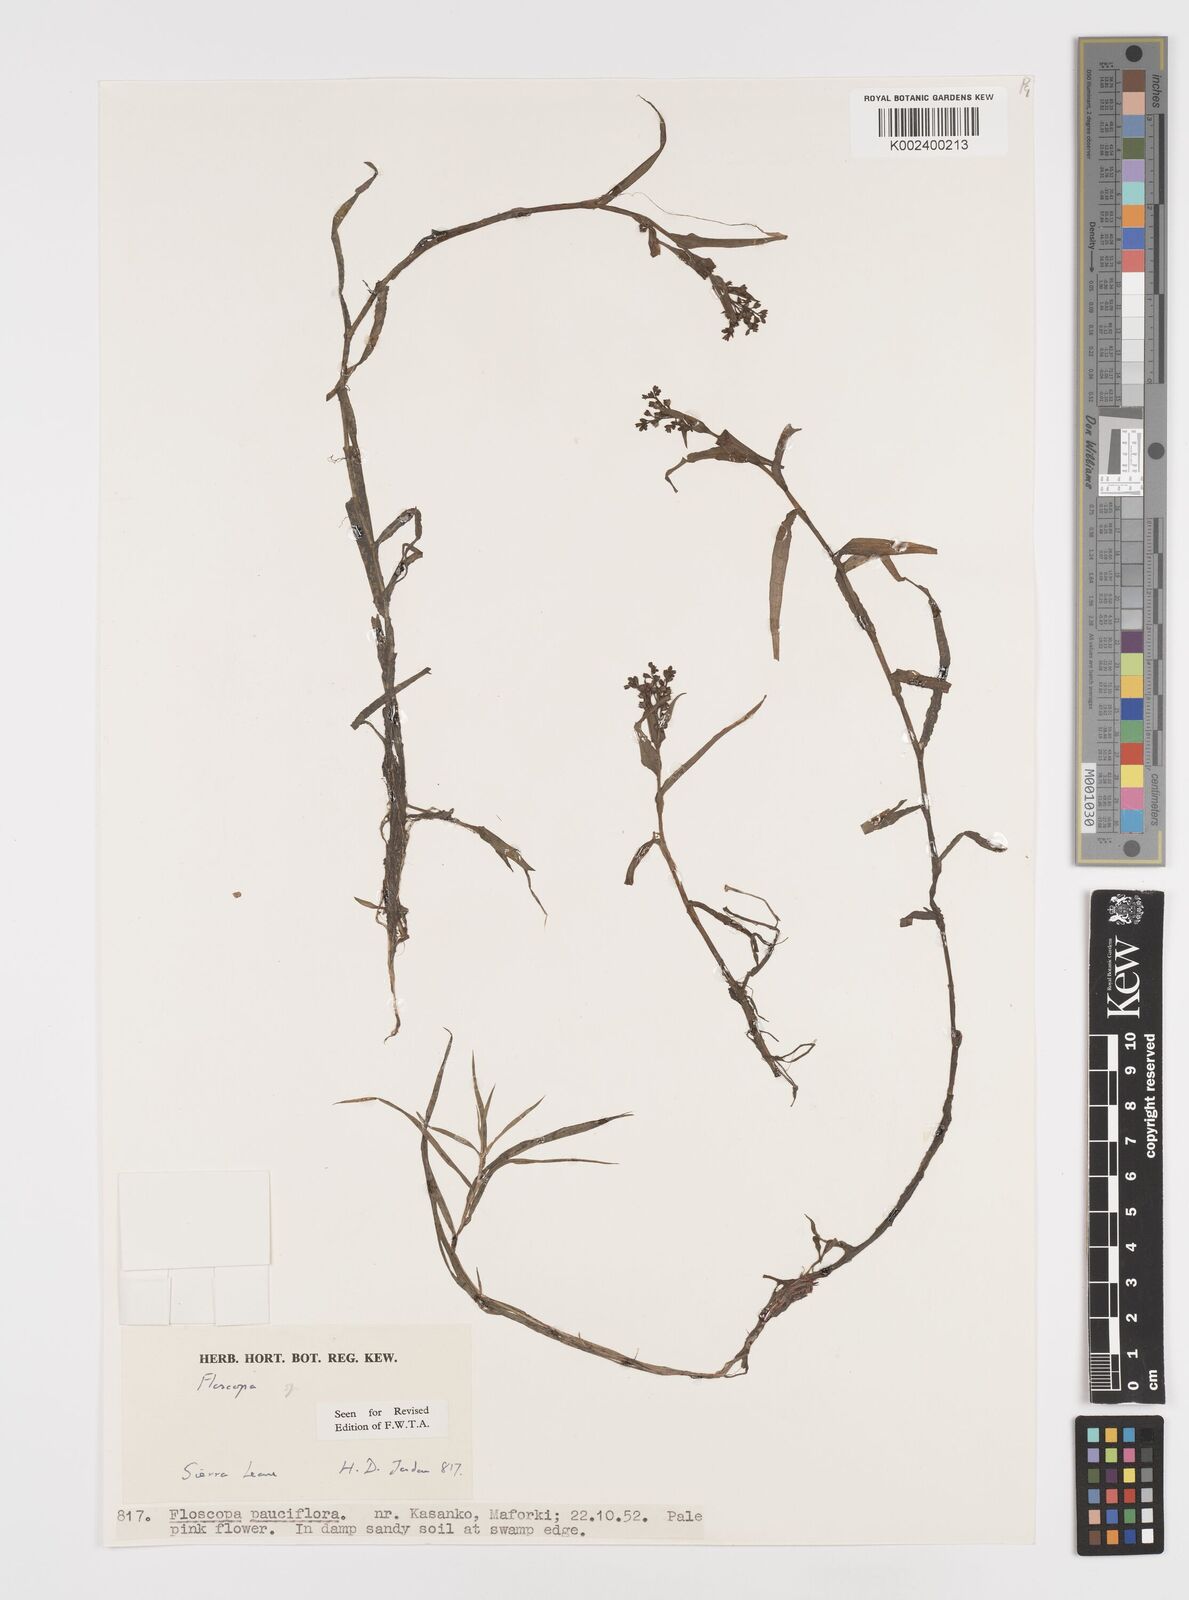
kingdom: Plantae
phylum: Tracheophyta
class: Liliopsida
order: Commelinales
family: Commelinaceae
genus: Floscopa
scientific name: Floscopa
